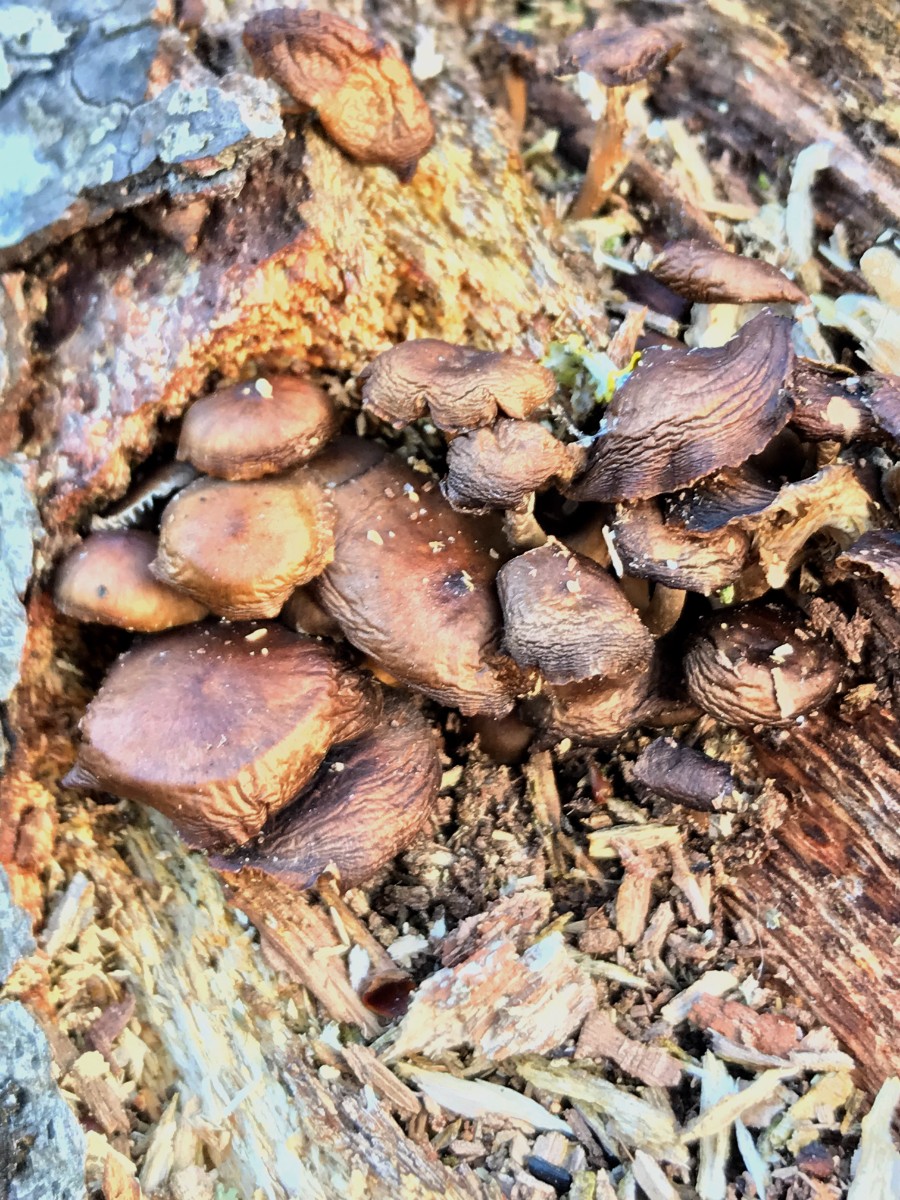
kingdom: Fungi
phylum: Basidiomycota
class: Agaricomycetes
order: Agaricales
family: Mycenaceae
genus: Mycena
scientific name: Mycena tintinnabulum
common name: vinter-huesvamp
